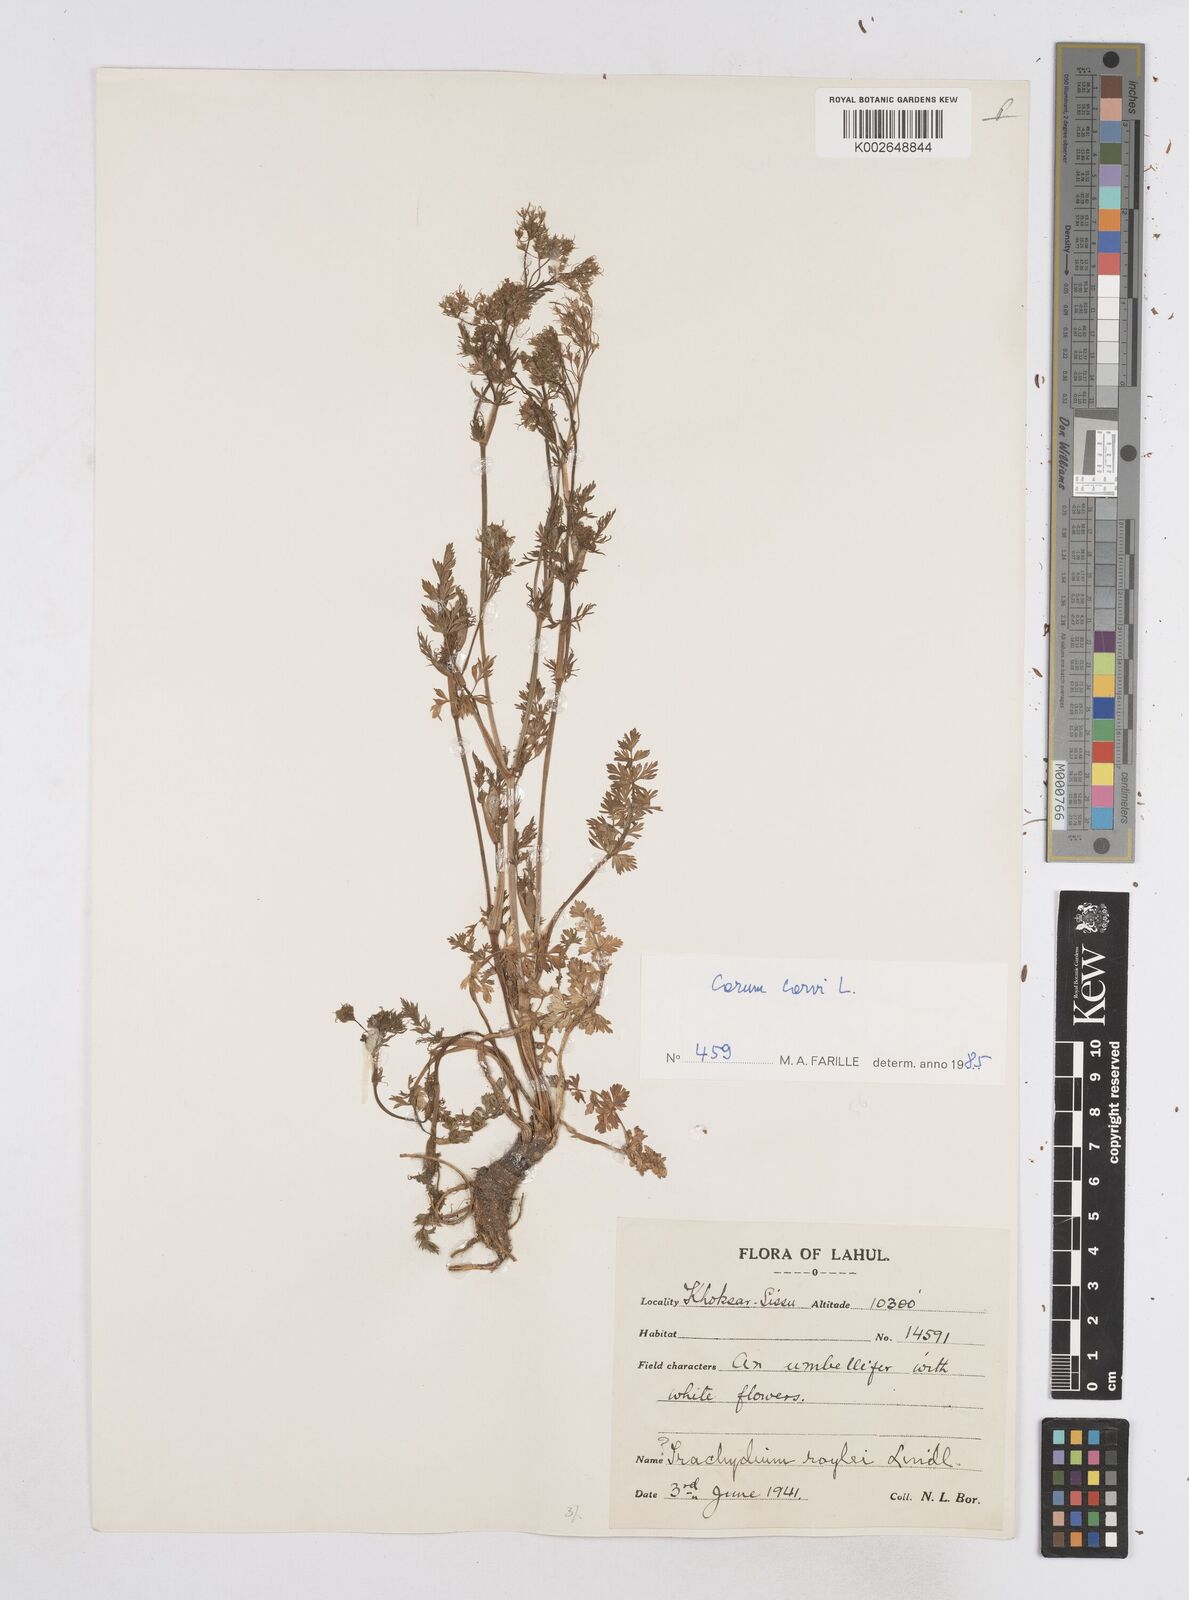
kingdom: Plantae
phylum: Tracheophyta
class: Magnoliopsida
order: Apiales
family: Apiaceae
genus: Bunium
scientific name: Bunium bulbocastanum
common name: Great pignut
